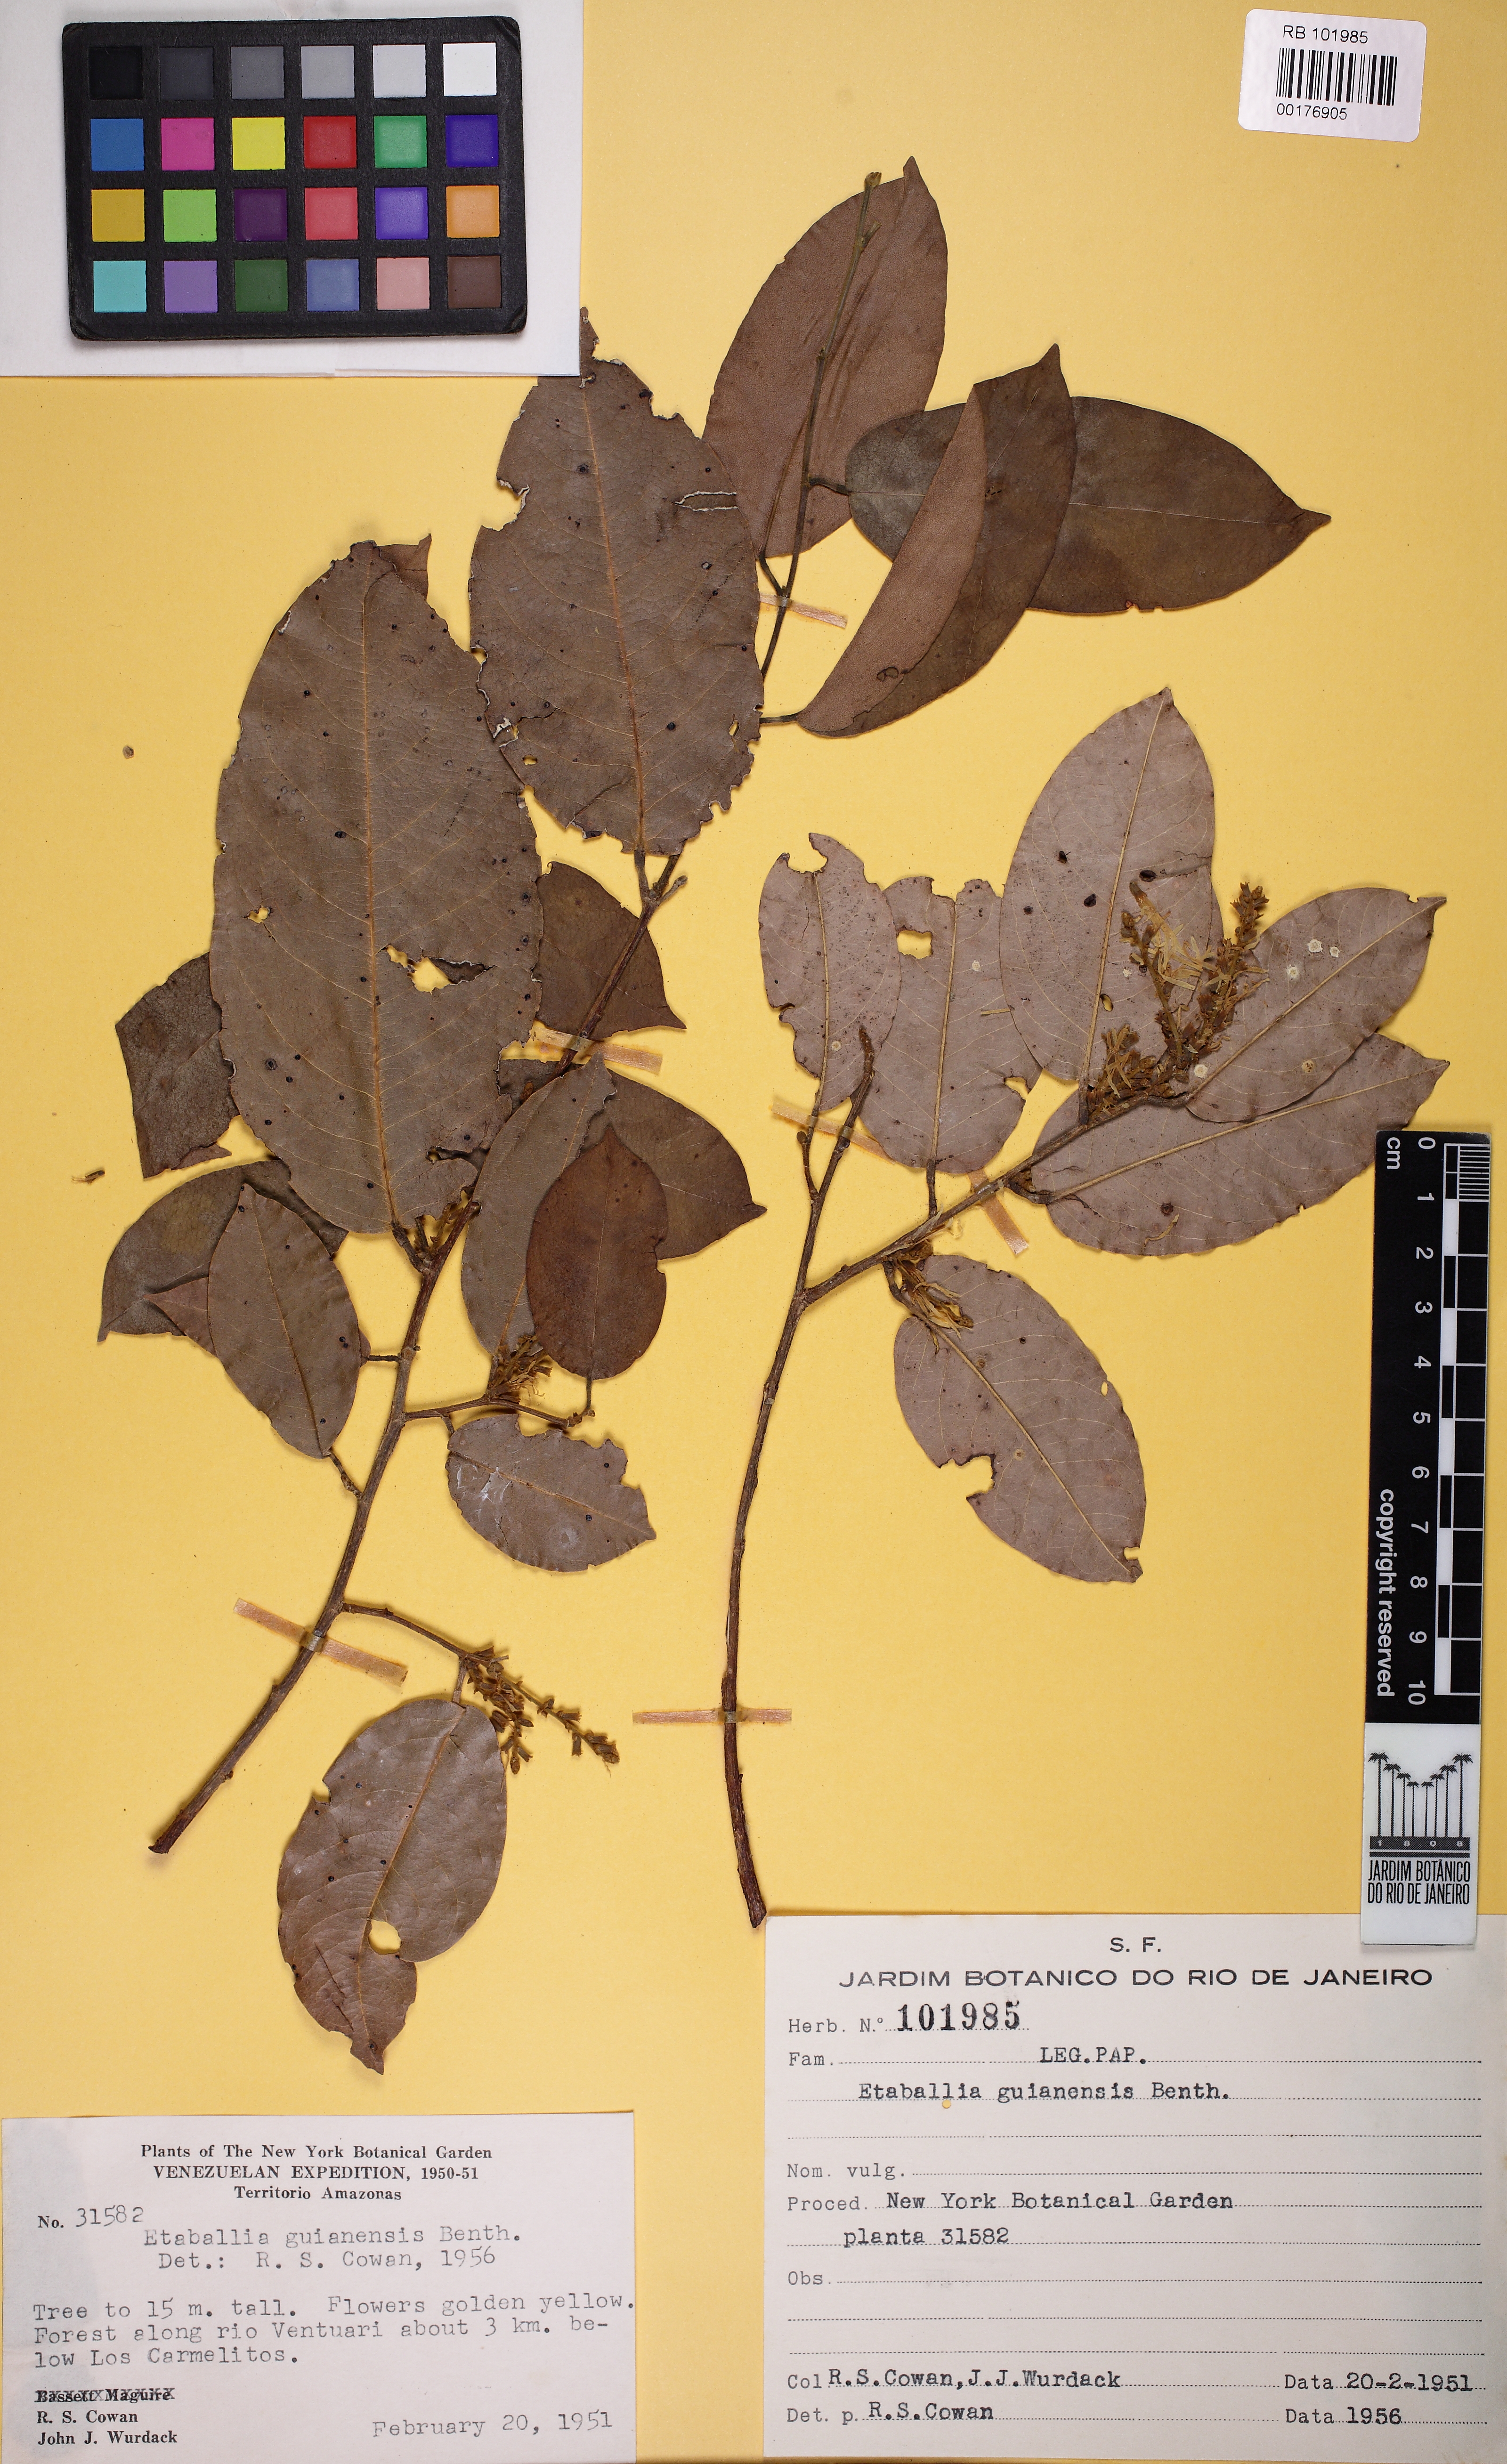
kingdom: Plantae
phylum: Tracheophyta
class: Magnoliopsida
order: Fabales
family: Fabaceae
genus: Pterocarpus
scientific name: Pterocarpus dubius
